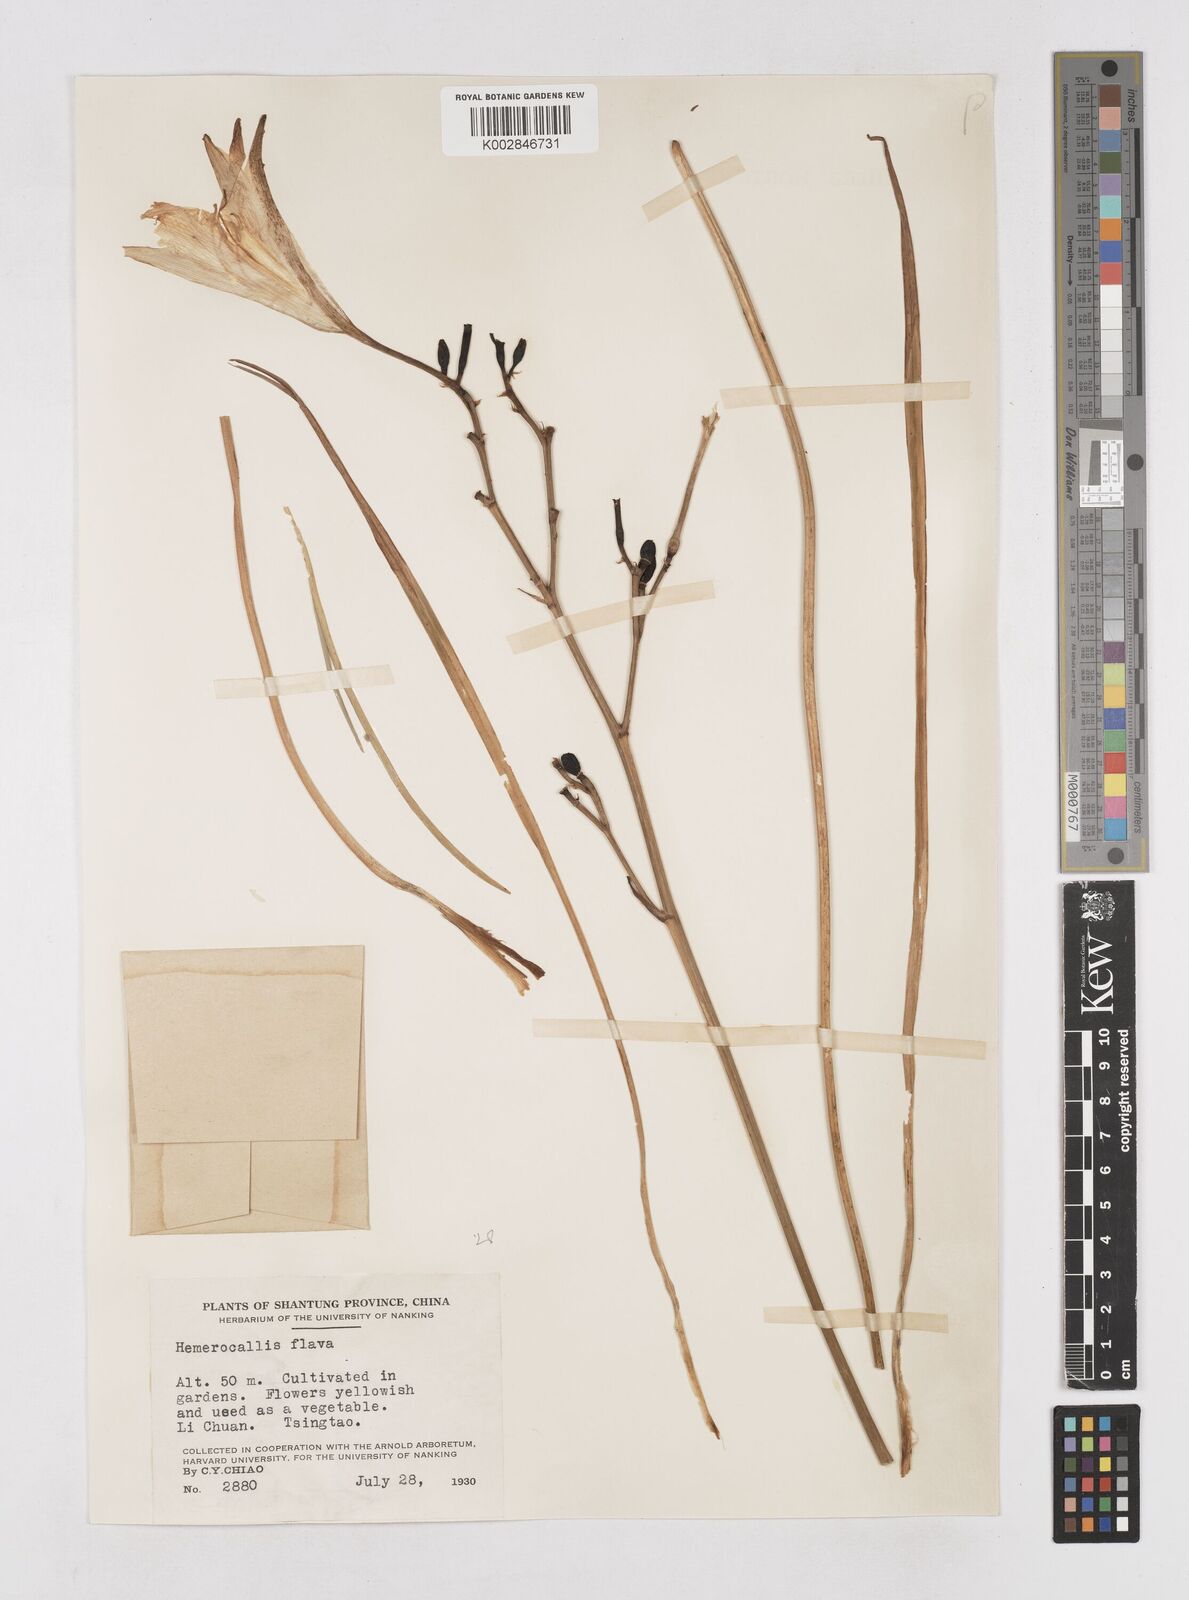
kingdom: Plantae
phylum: Tracheophyta
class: Liliopsida
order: Asparagales
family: Asphodelaceae
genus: Hemerocallis
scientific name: Hemerocallis
